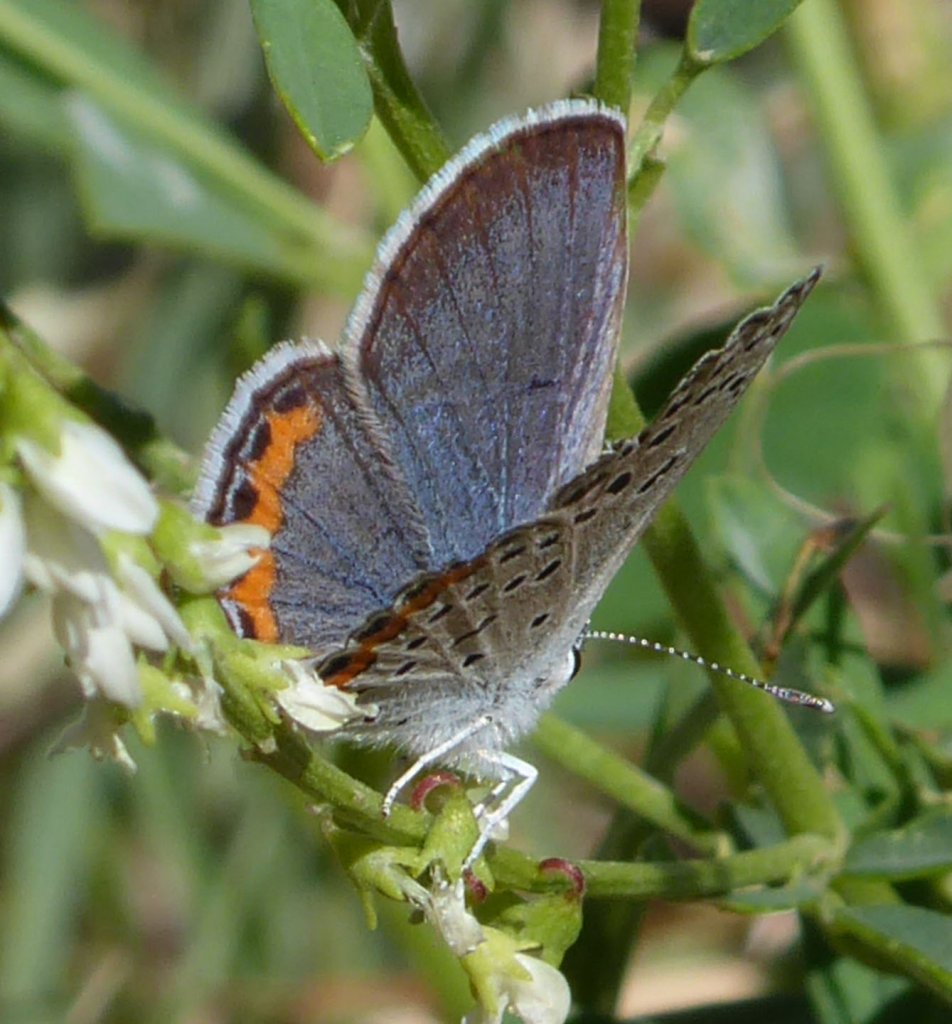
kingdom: Animalia
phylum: Arthropoda
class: Insecta
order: Lepidoptera
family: Lycaenidae
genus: Plebejus
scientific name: Plebejus acmon
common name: Acmon Blue
